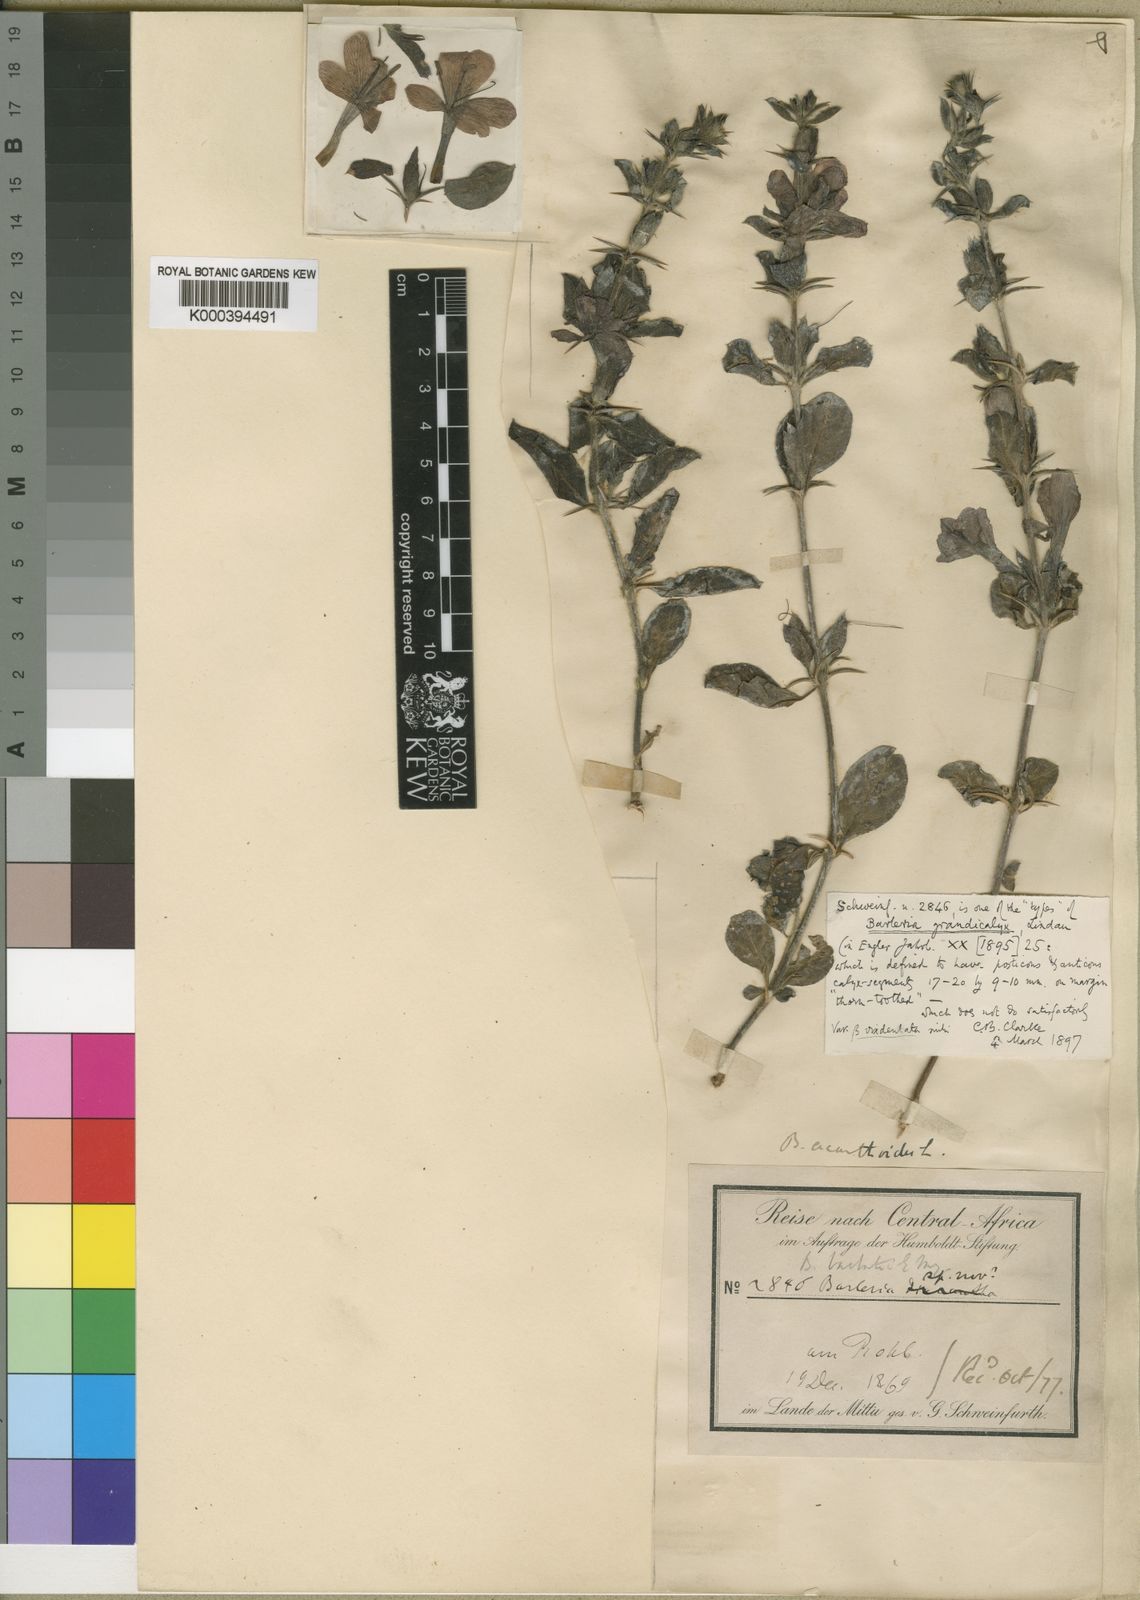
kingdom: Plantae
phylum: Tracheophyta
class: Magnoliopsida
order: Lamiales
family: Acanthaceae
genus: Barleria
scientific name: Barleria grandicalyx
